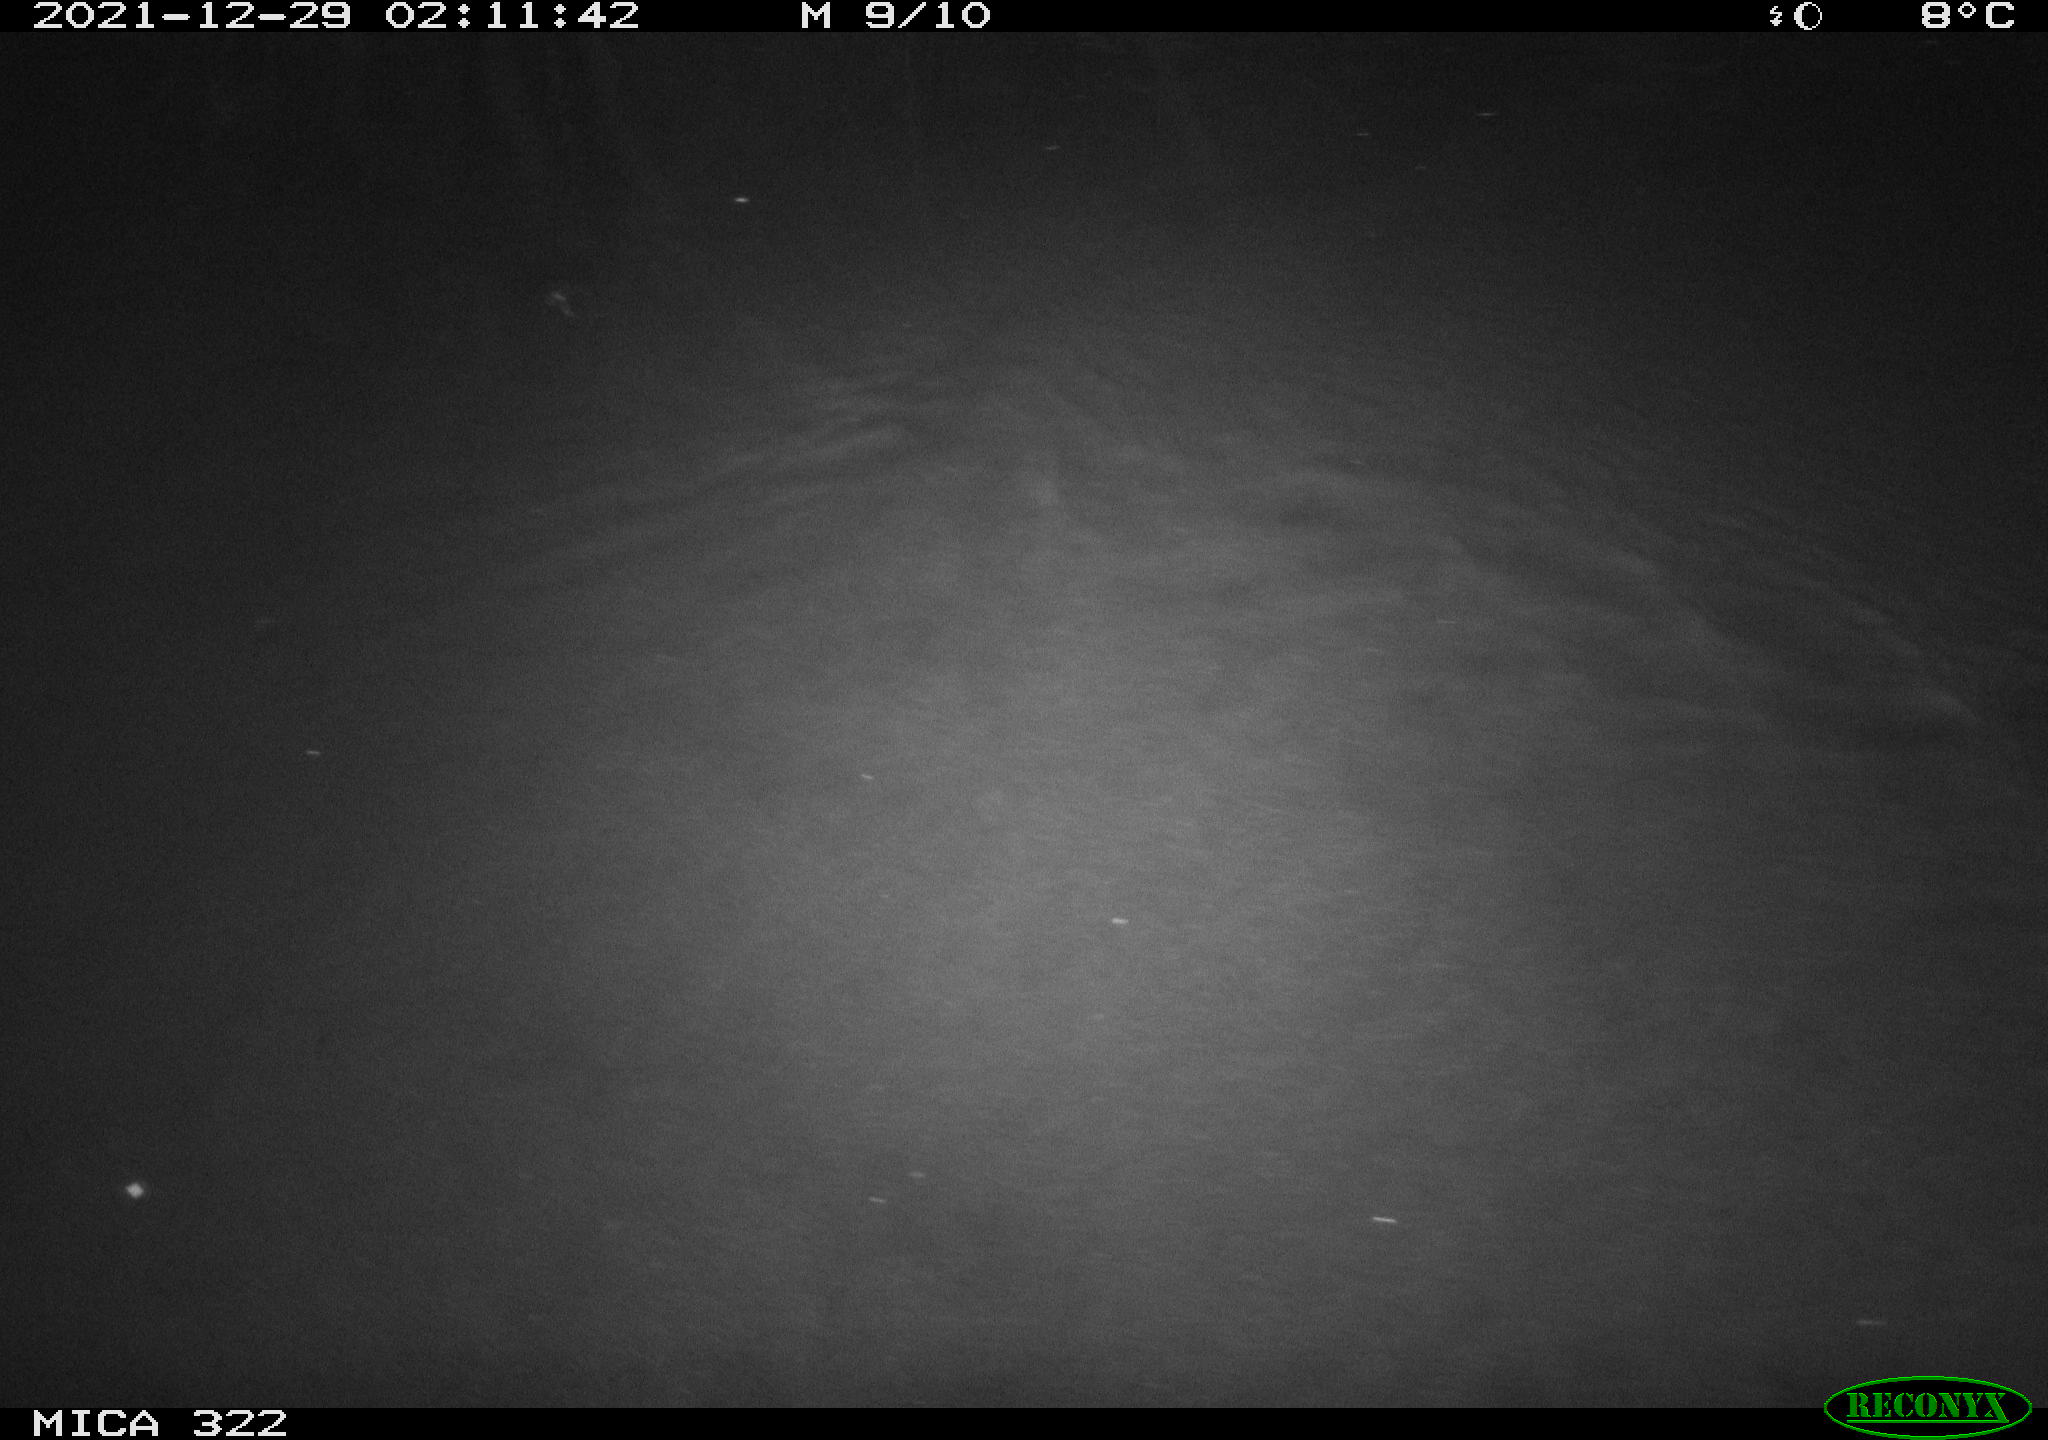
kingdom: Animalia
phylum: Chordata
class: Mammalia
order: Rodentia
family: Muridae
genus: Rattus
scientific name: Rattus norvegicus
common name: Brown rat
